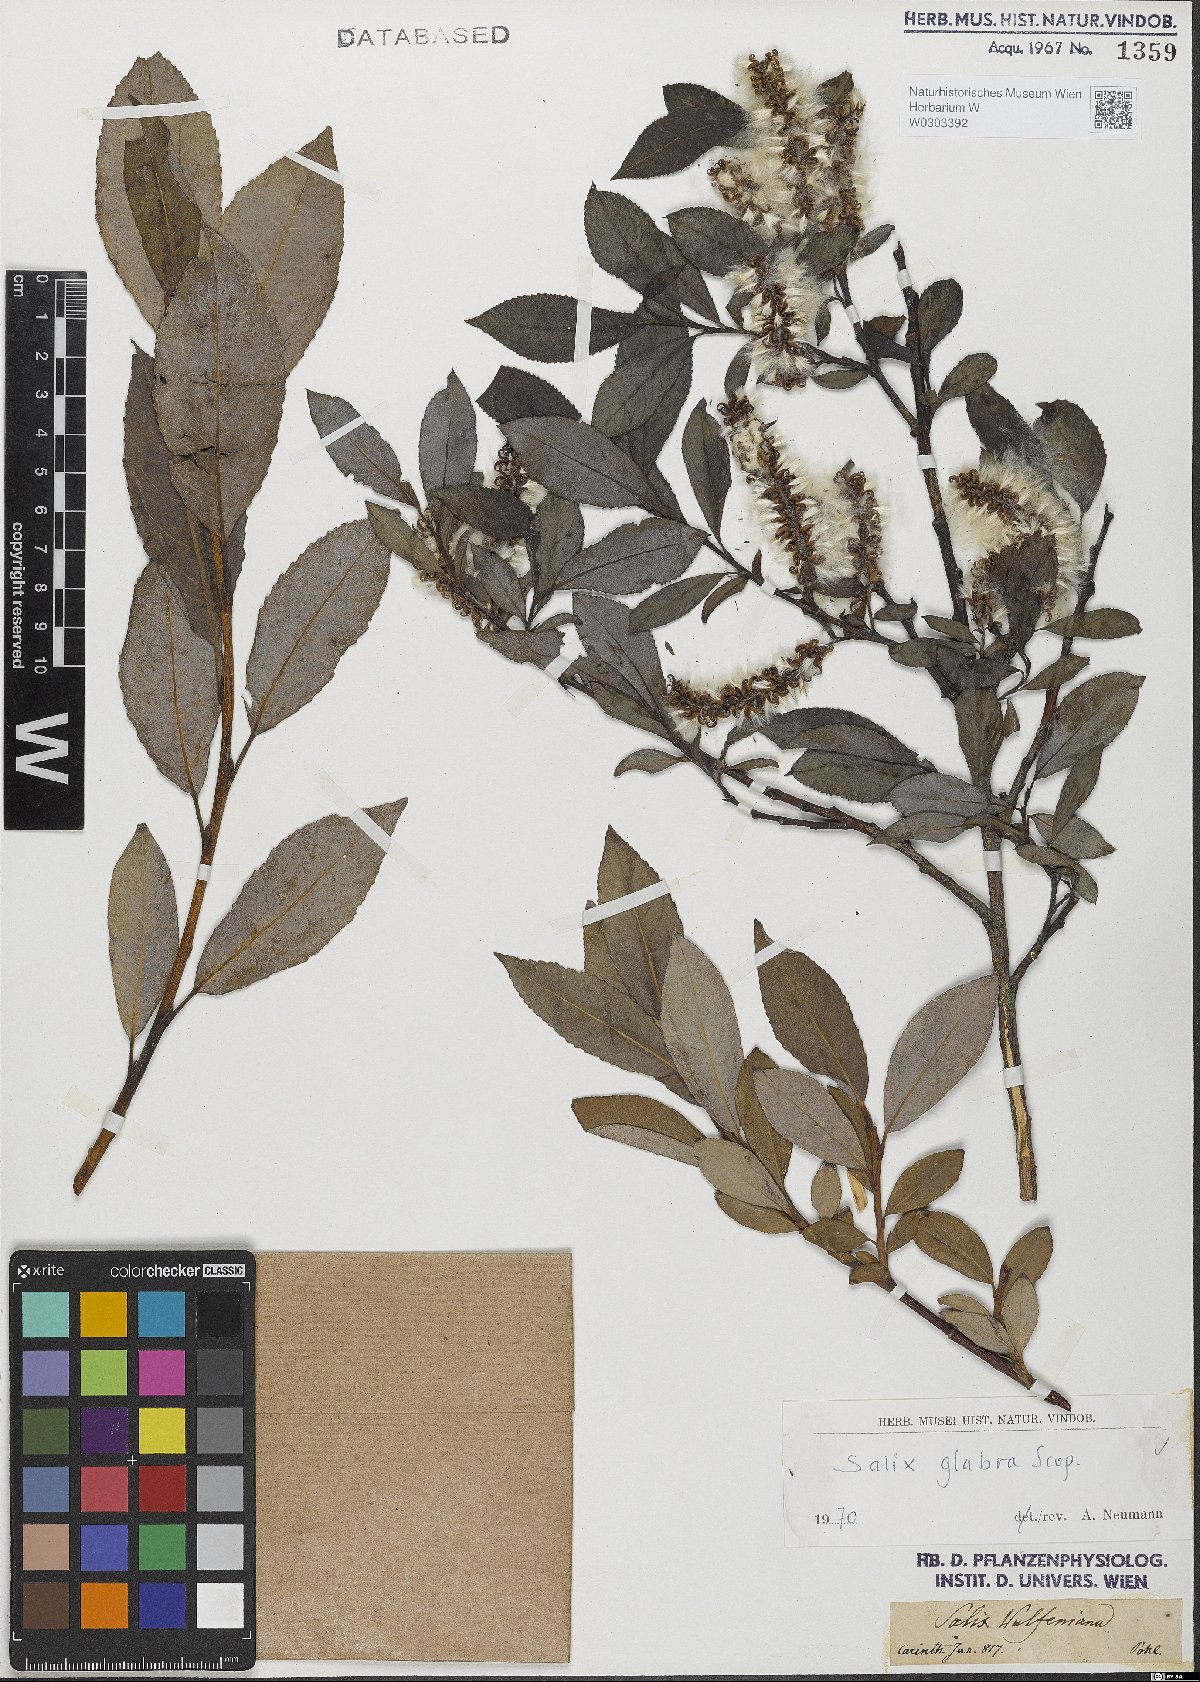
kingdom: Plantae
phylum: Tracheophyta
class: Magnoliopsida
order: Malpighiales
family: Salicaceae
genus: Salix
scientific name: Salix glabra
